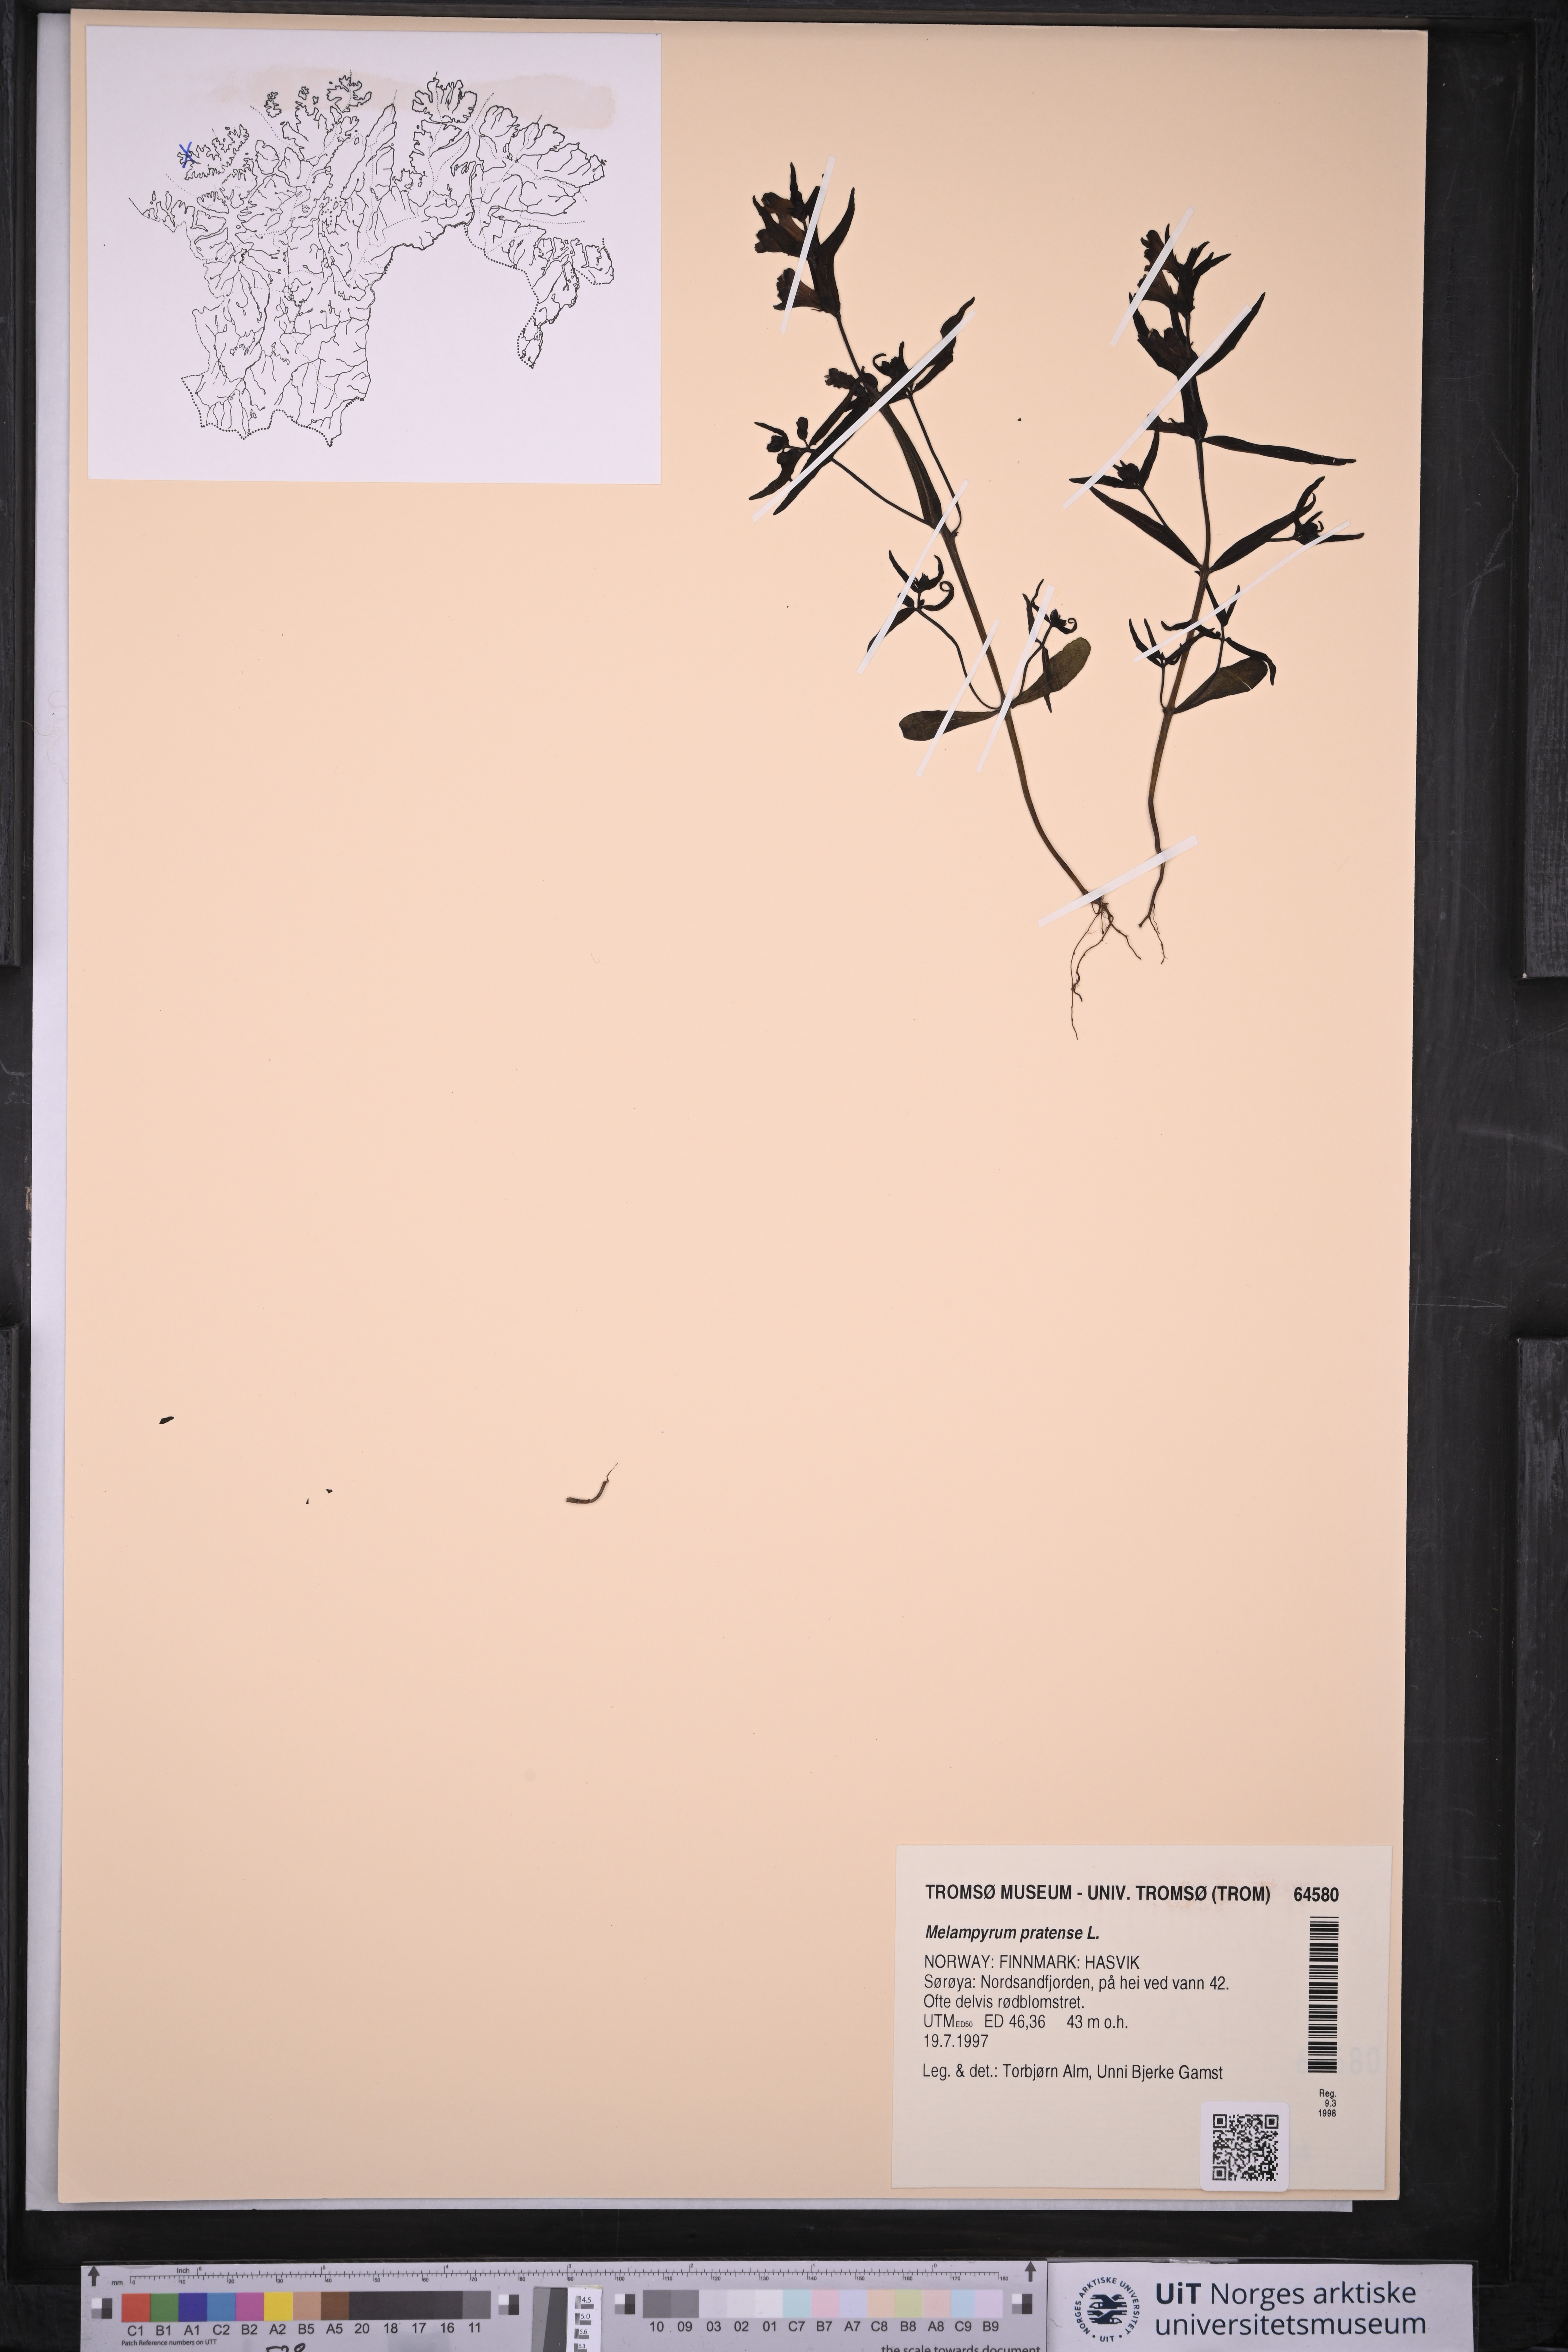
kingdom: Plantae
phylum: Tracheophyta
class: Magnoliopsida
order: Lamiales
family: Orobanchaceae
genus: Melampyrum
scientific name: Melampyrum pratense
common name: Common cow-wheat
